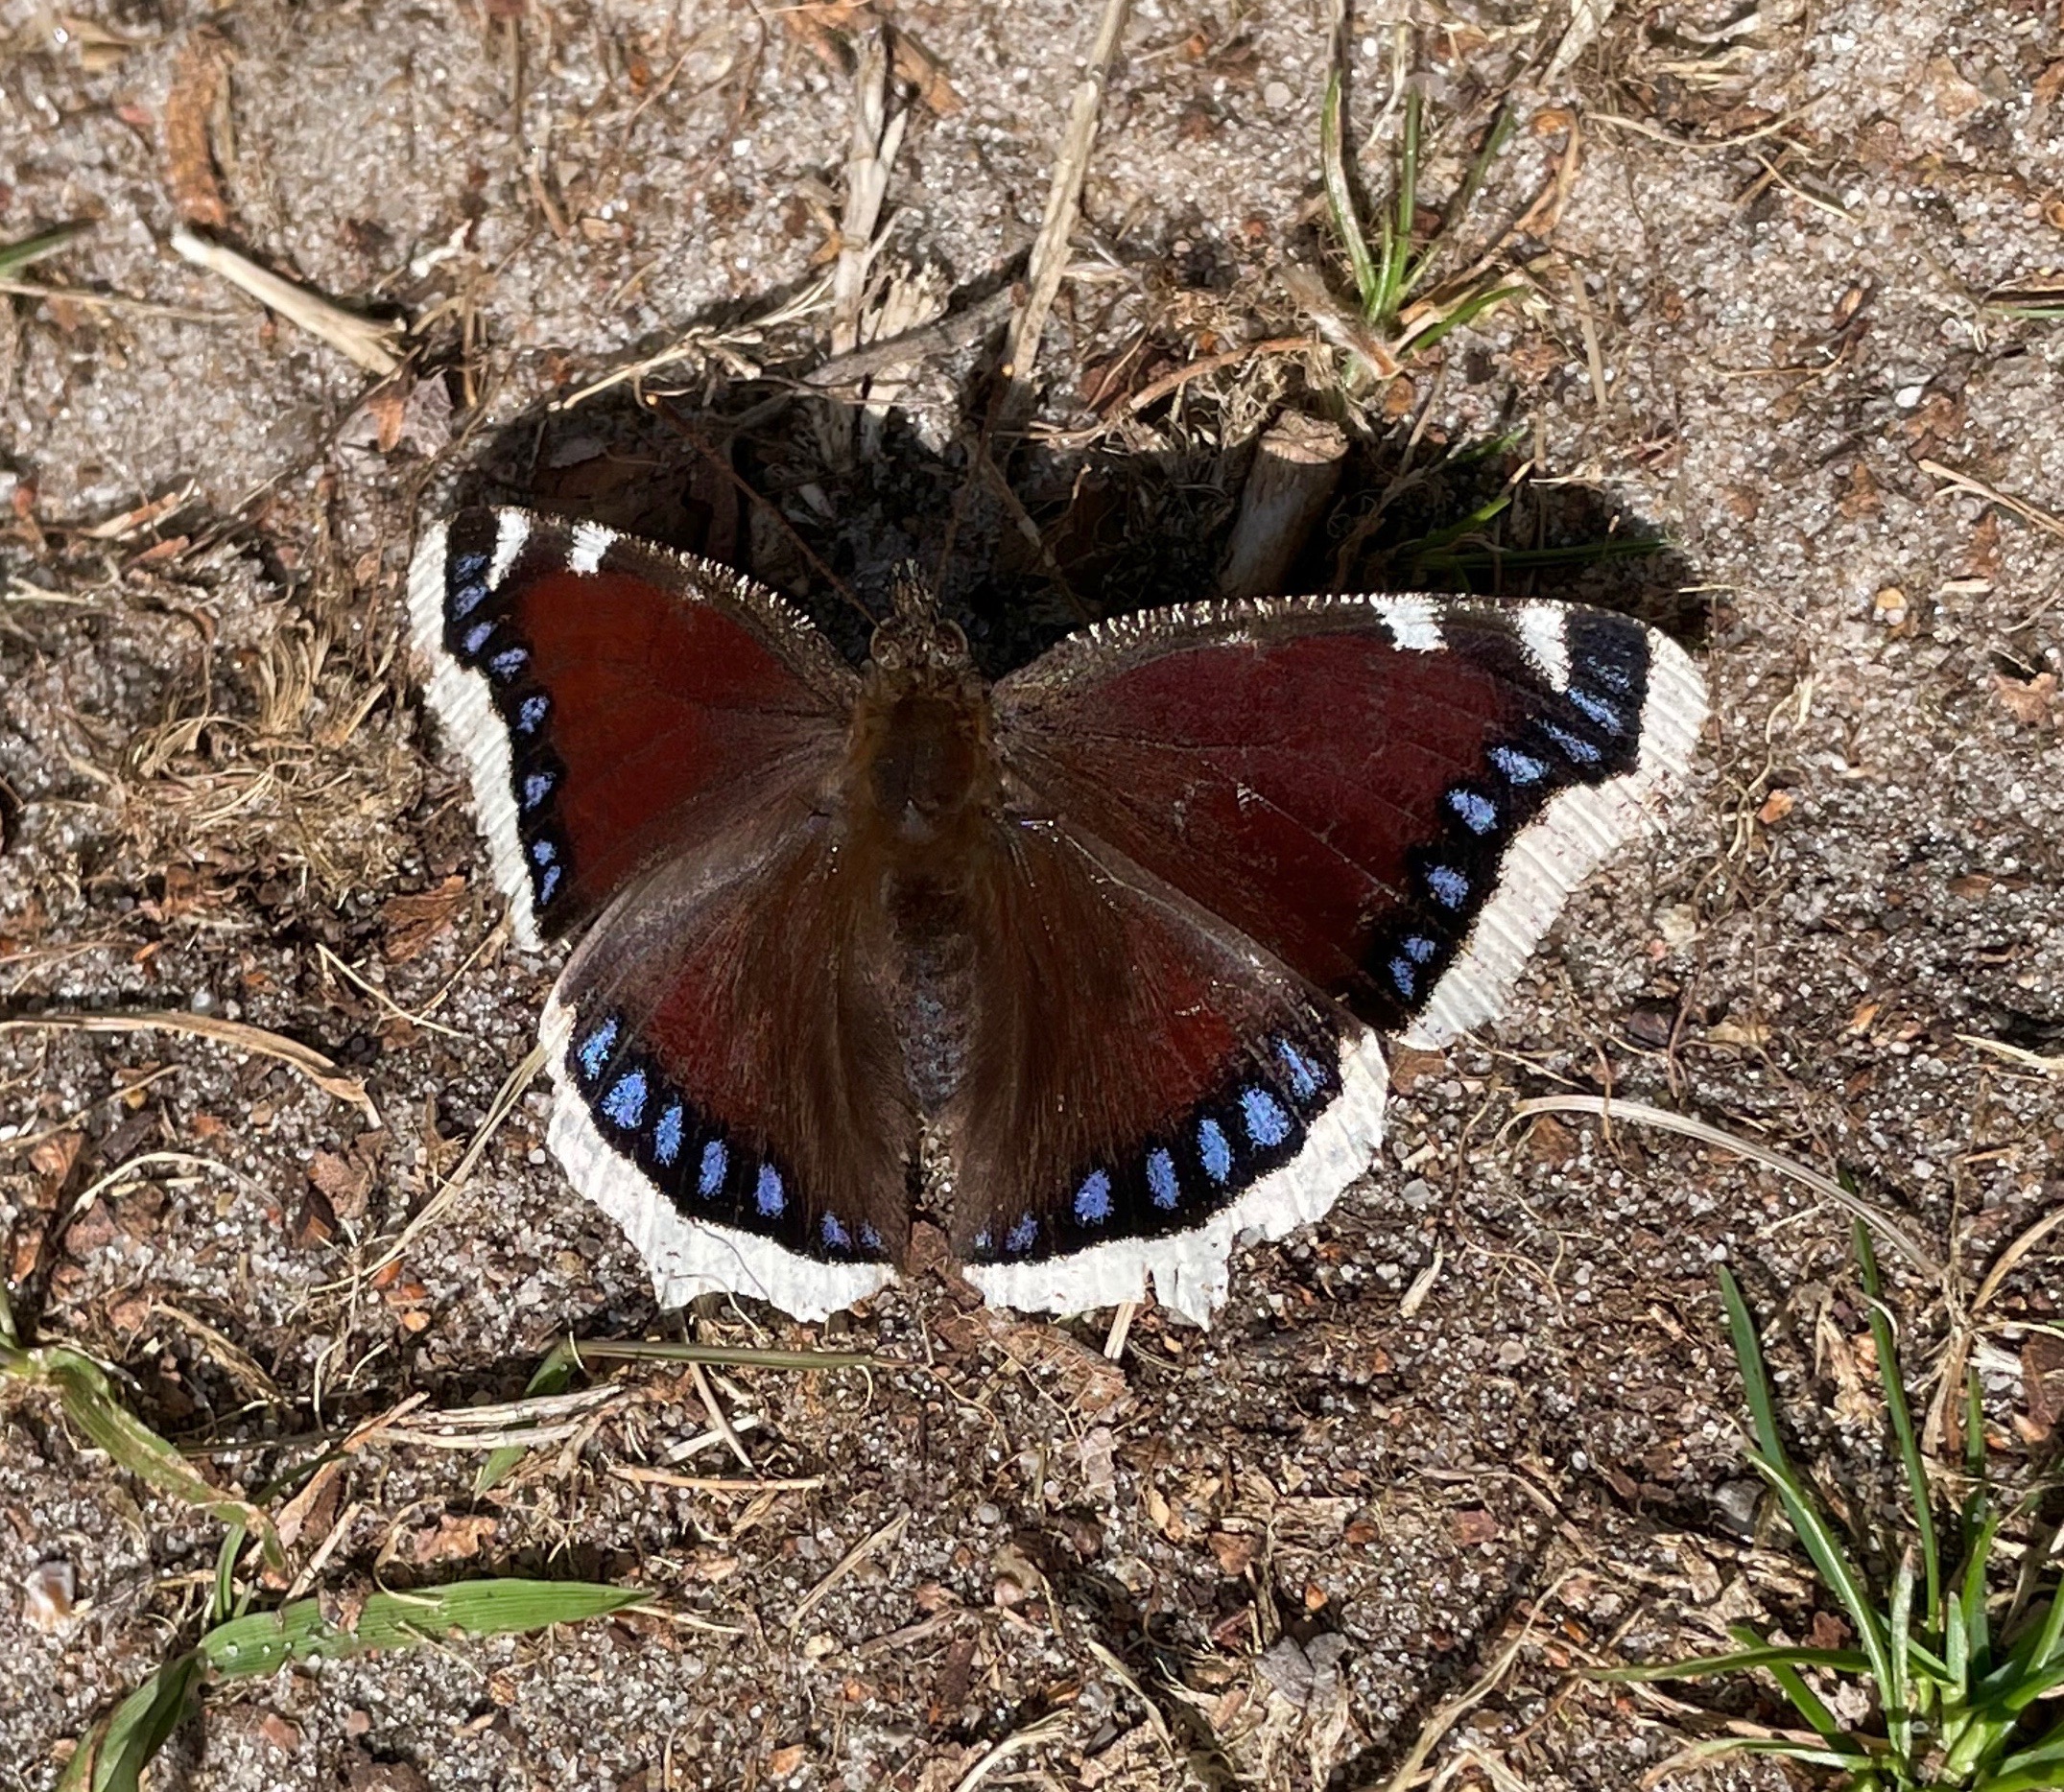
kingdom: Animalia
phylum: Arthropoda
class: Insecta
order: Lepidoptera
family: Nymphalidae
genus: Nymphalis
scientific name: Nymphalis antiopa
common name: Sørgekåbe
